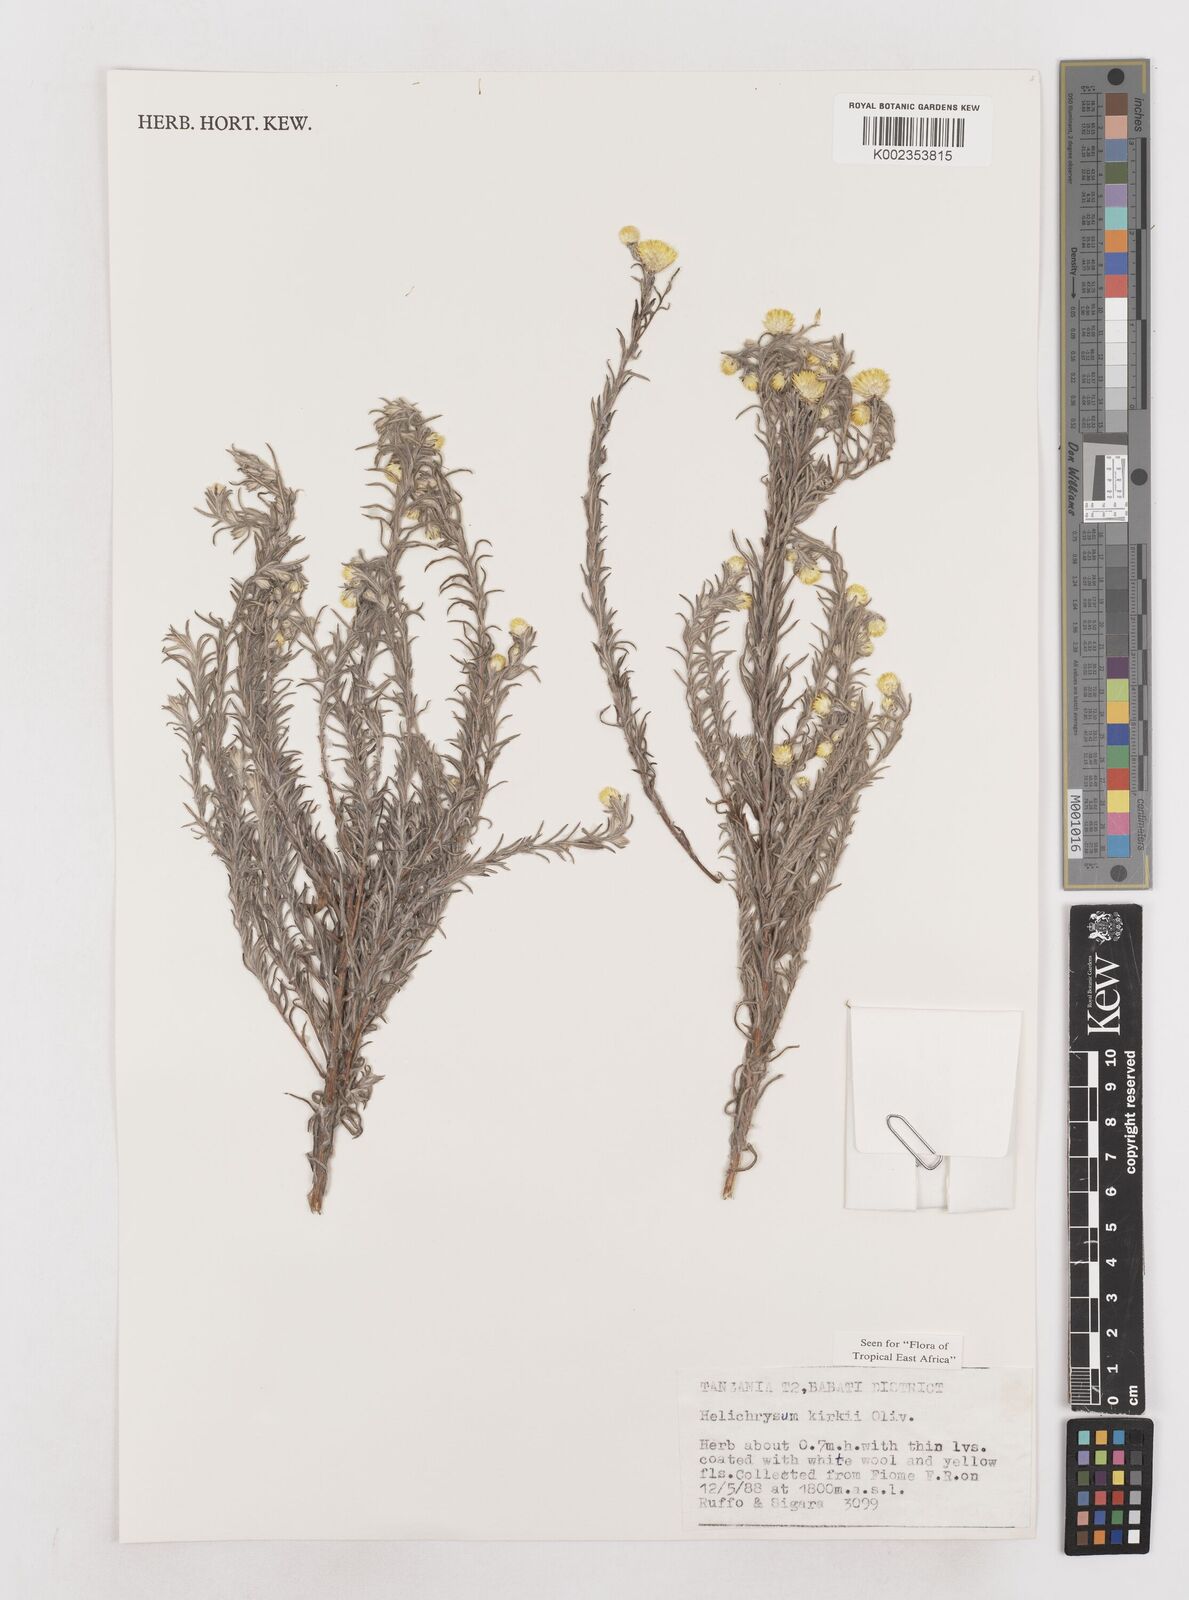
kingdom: Plantae
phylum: Tracheophyta
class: Magnoliopsida
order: Asterales
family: Asteraceae
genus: Helichrysum
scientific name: Helichrysum kirkii
